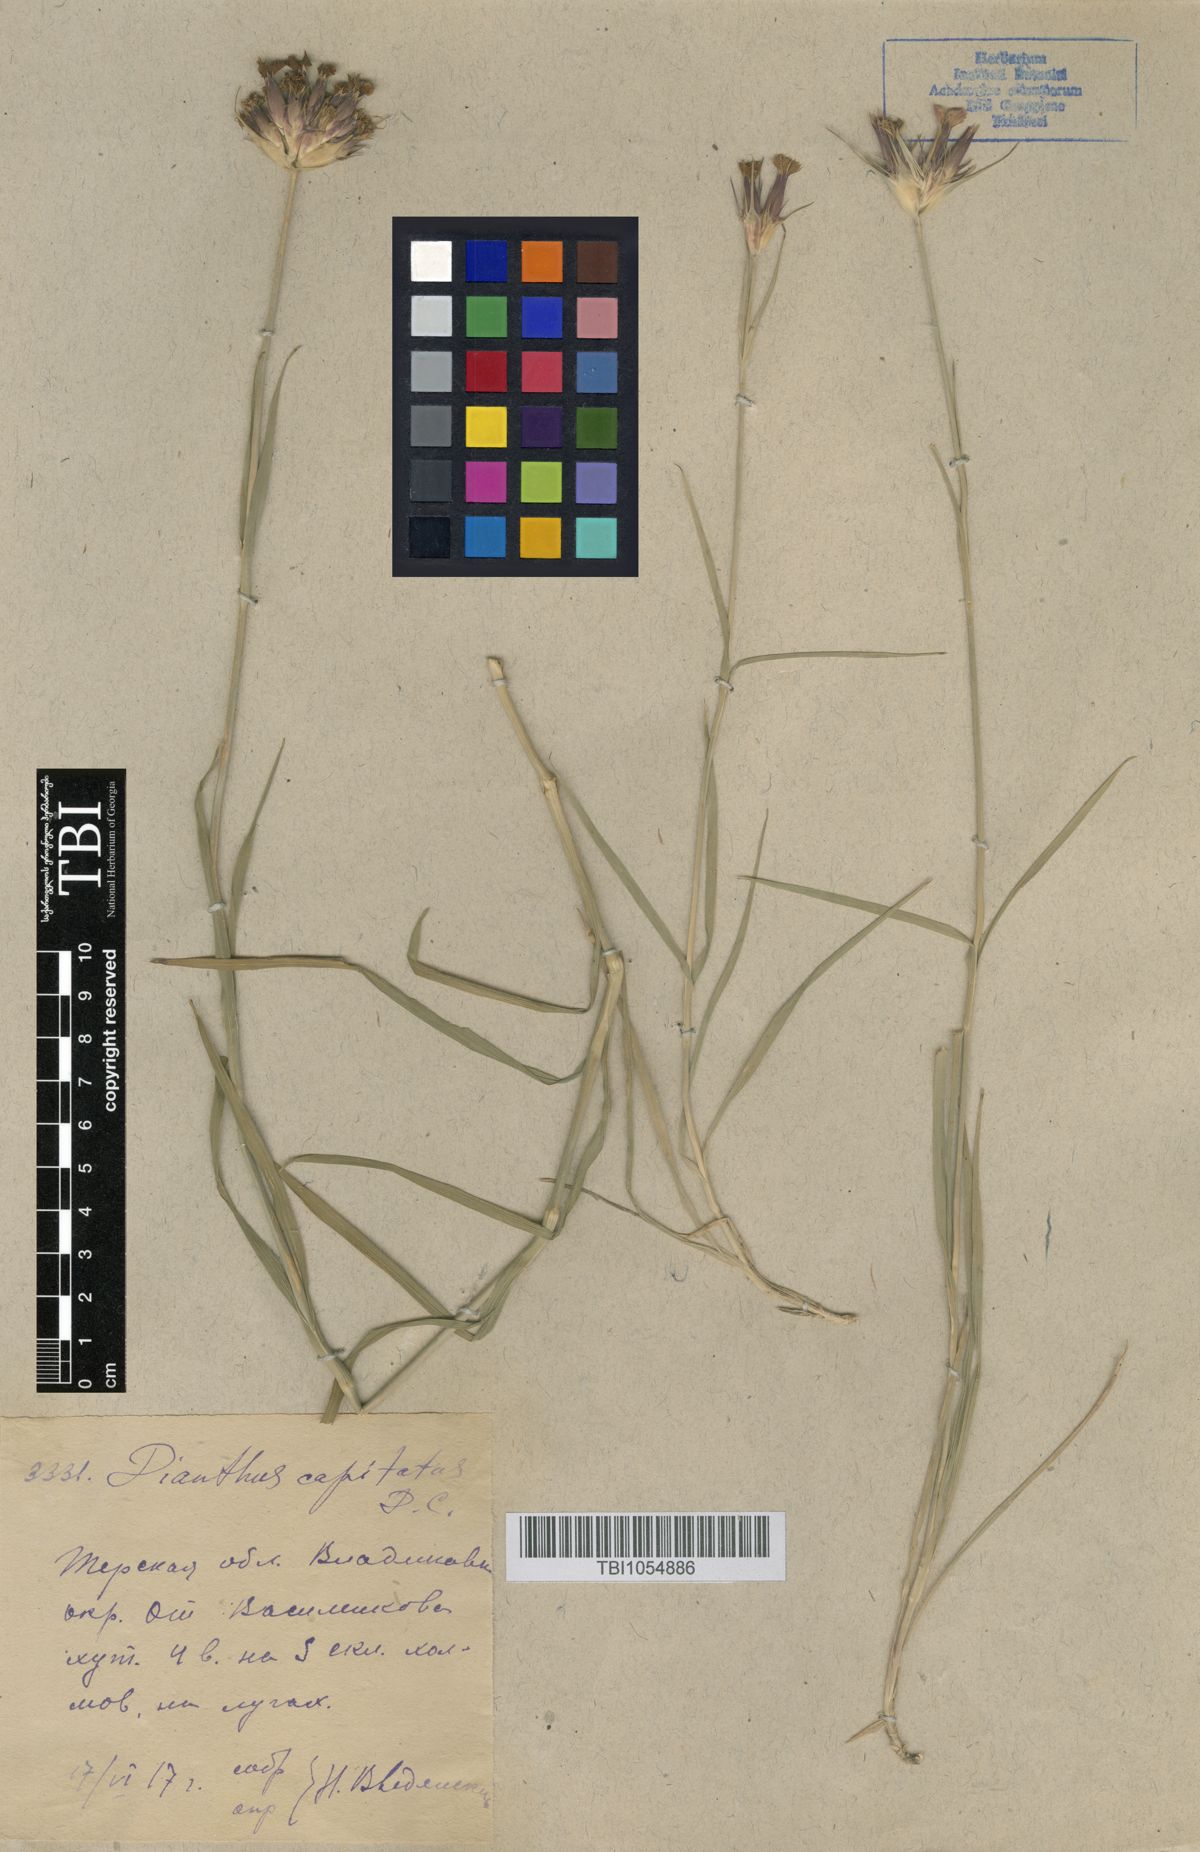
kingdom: Plantae
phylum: Tracheophyta
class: Magnoliopsida
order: Caryophyllales
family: Caryophyllaceae
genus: Dianthus
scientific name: Dianthus capitatus
